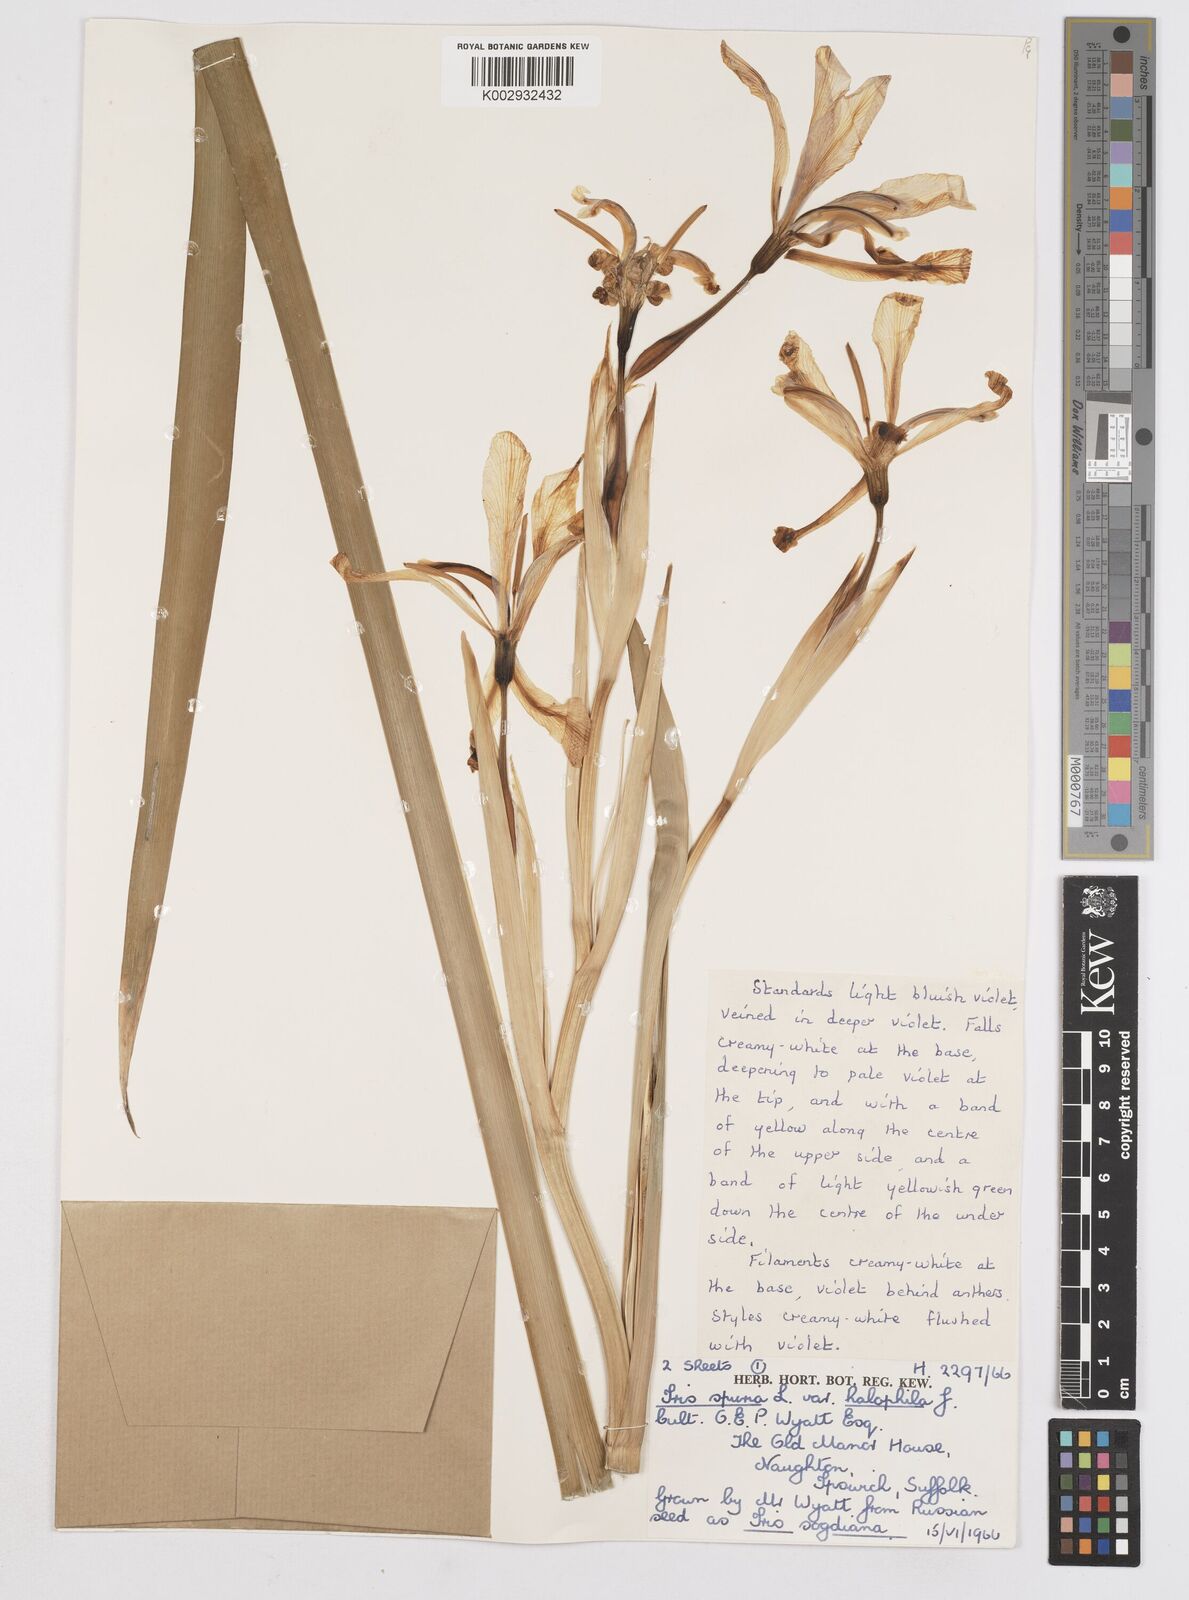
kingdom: Plantae
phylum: Tracheophyta
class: Liliopsida
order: Asparagales
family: Iridaceae
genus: Iris
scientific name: Iris halophila
